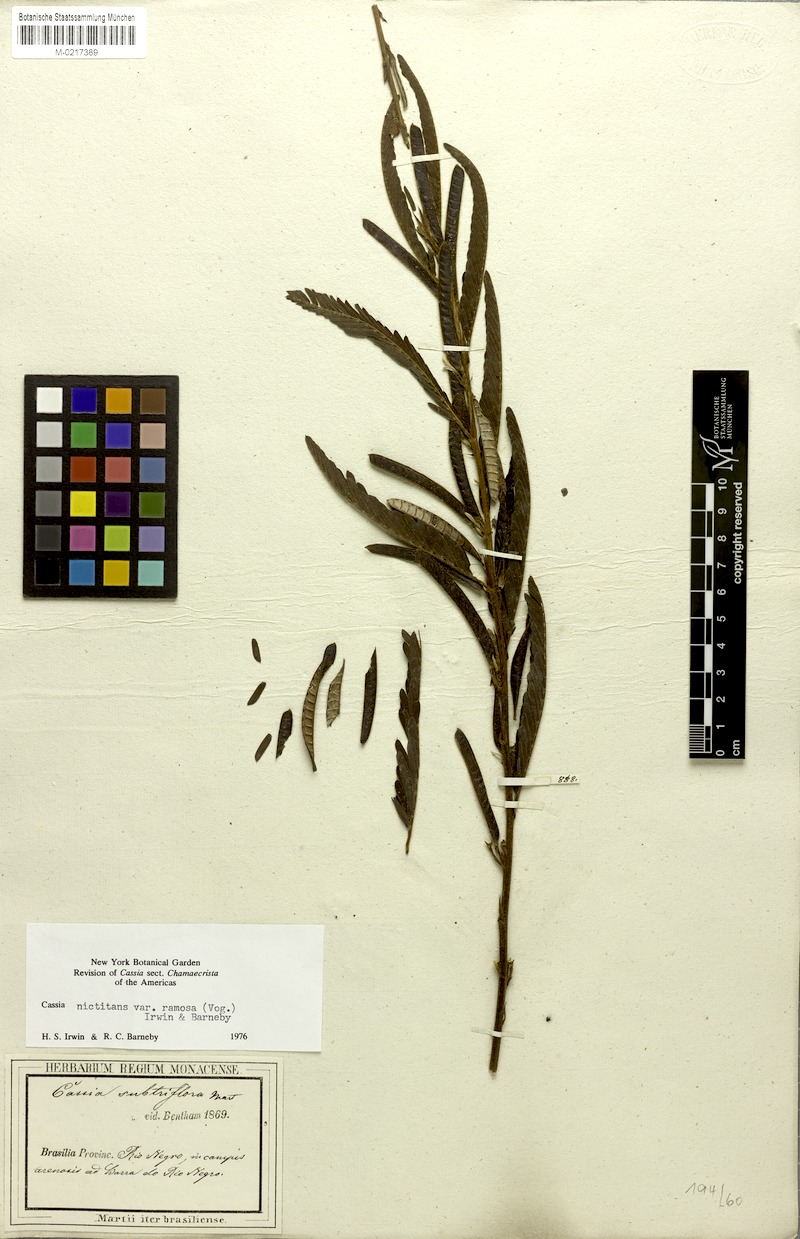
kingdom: Plantae
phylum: Tracheophyta
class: Magnoliopsida
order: Fabales
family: Fabaceae
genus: Chamaecrista
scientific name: Chamaecrista nictitans
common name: Sensitive cassia
